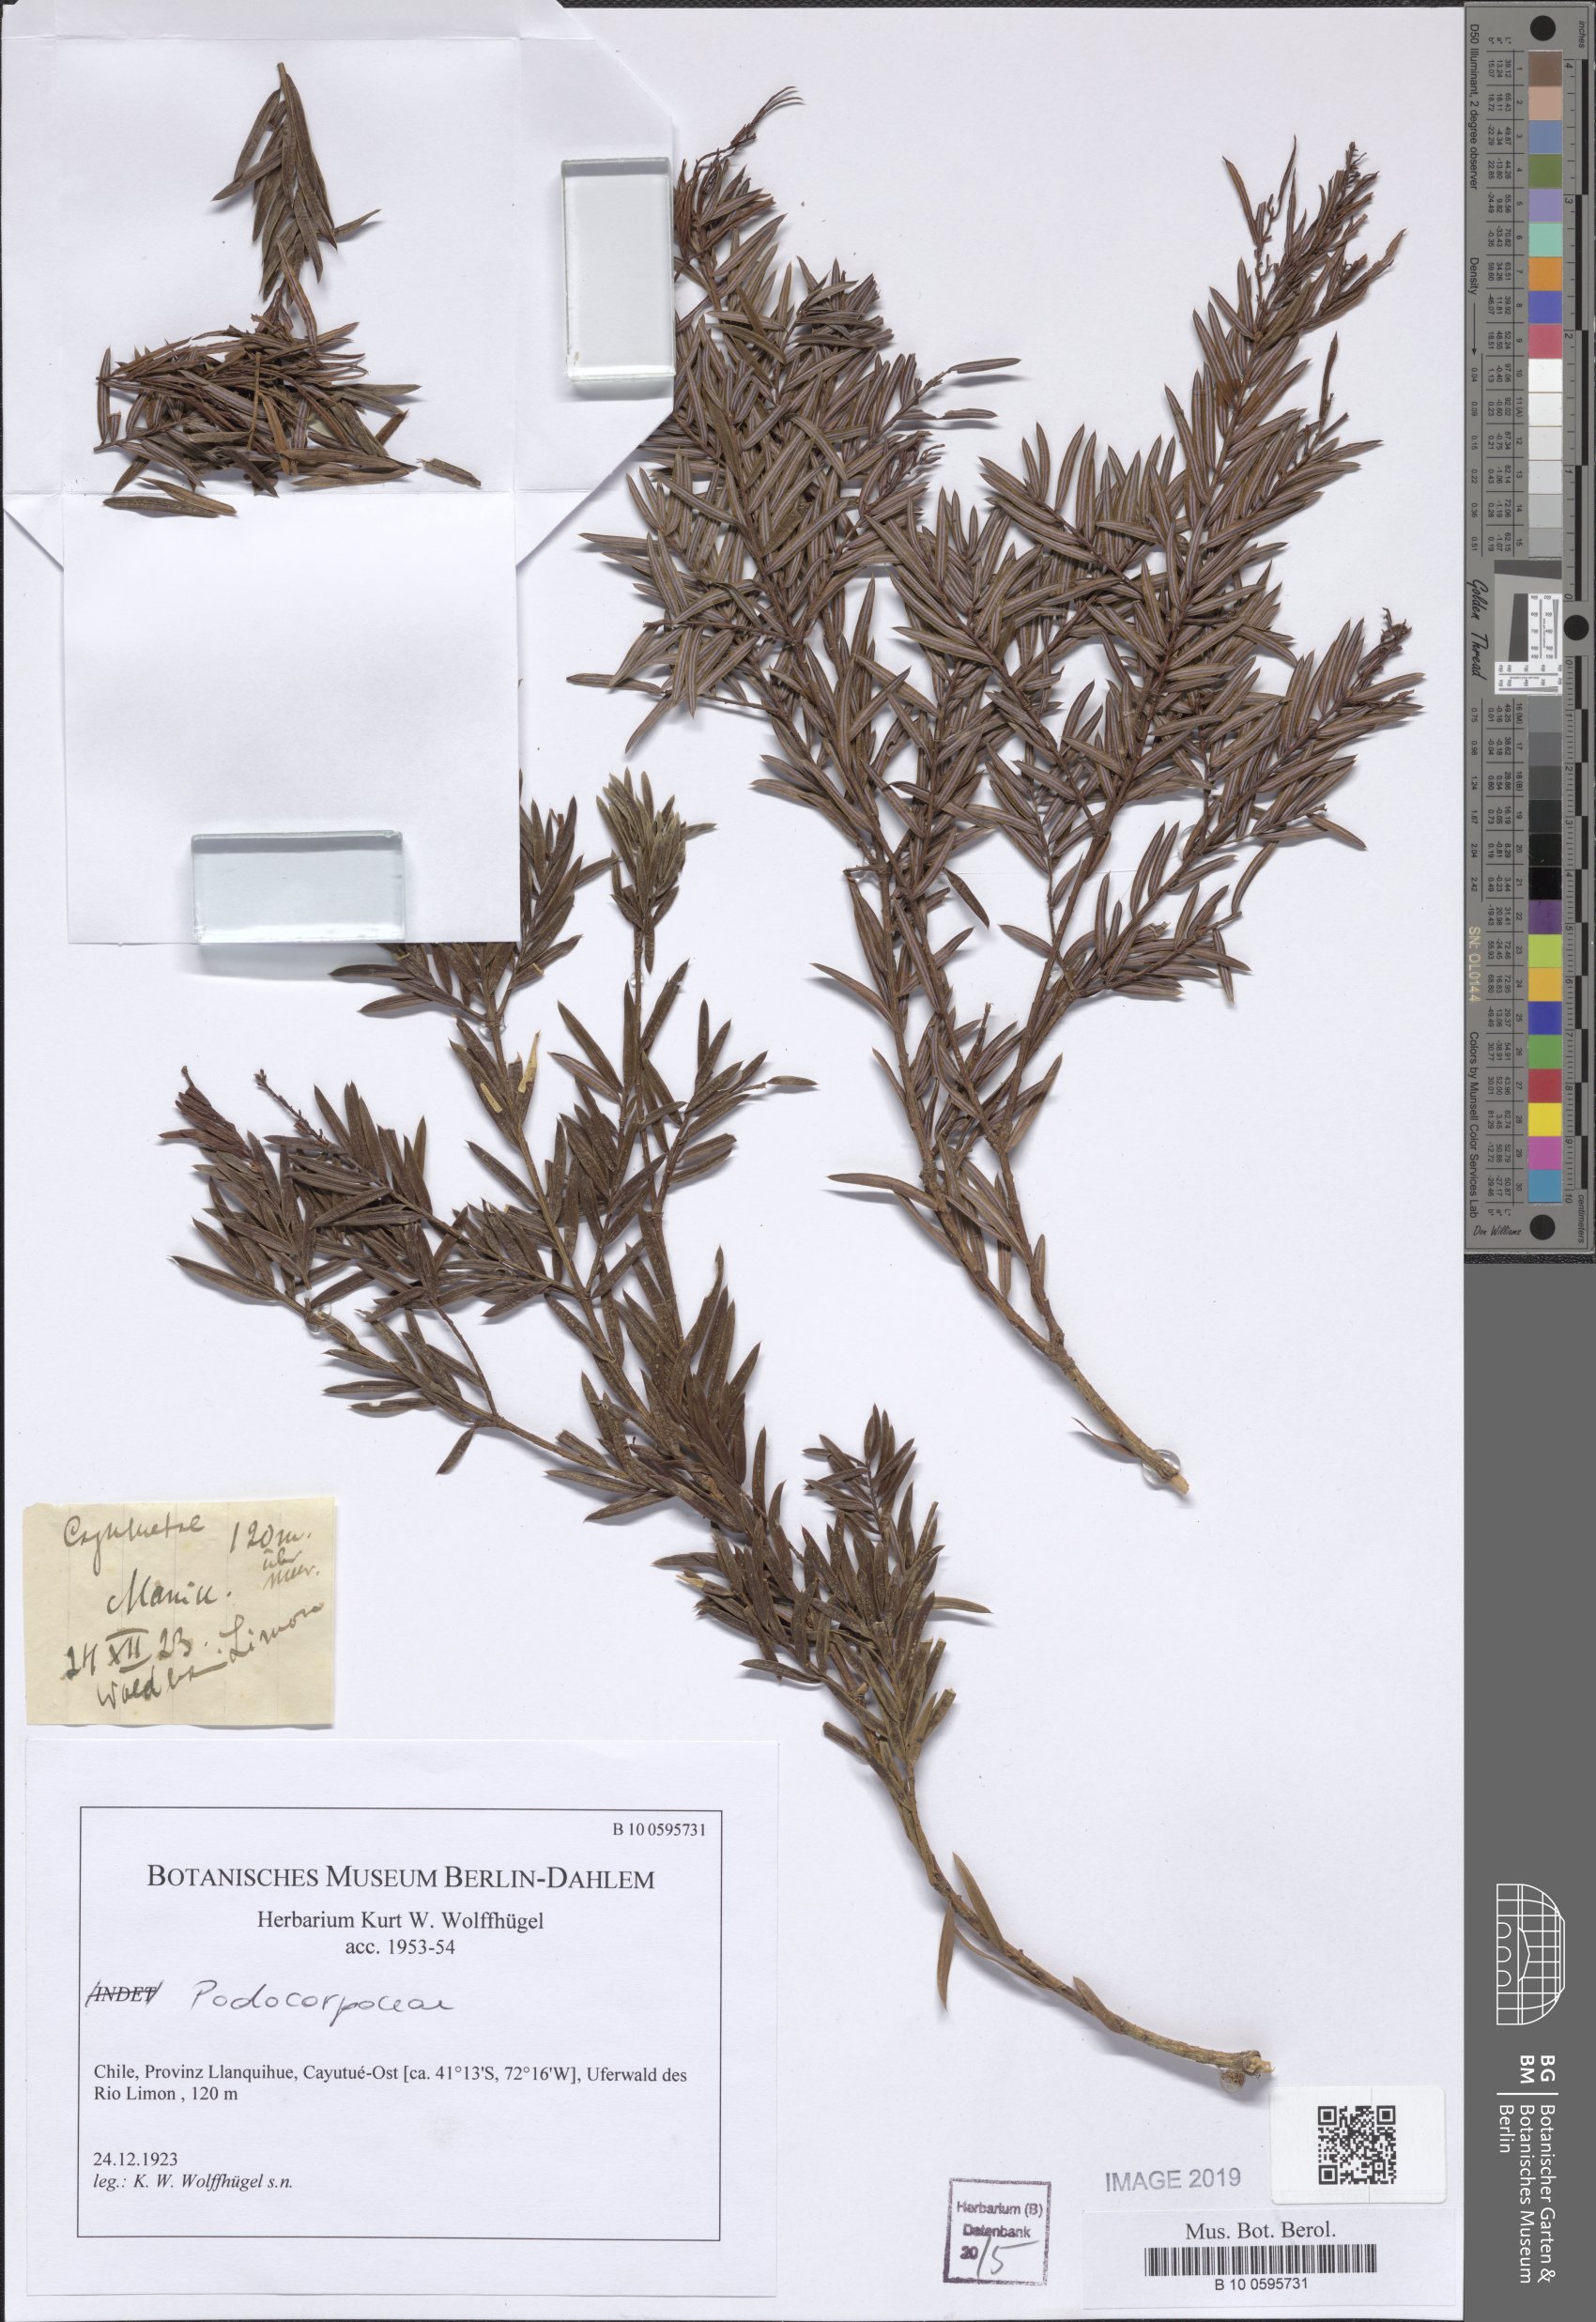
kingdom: Plantae
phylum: Tracheophyta
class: Pinopsida
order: Pinales
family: Podocarpaceae
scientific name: Podocarpaceae
